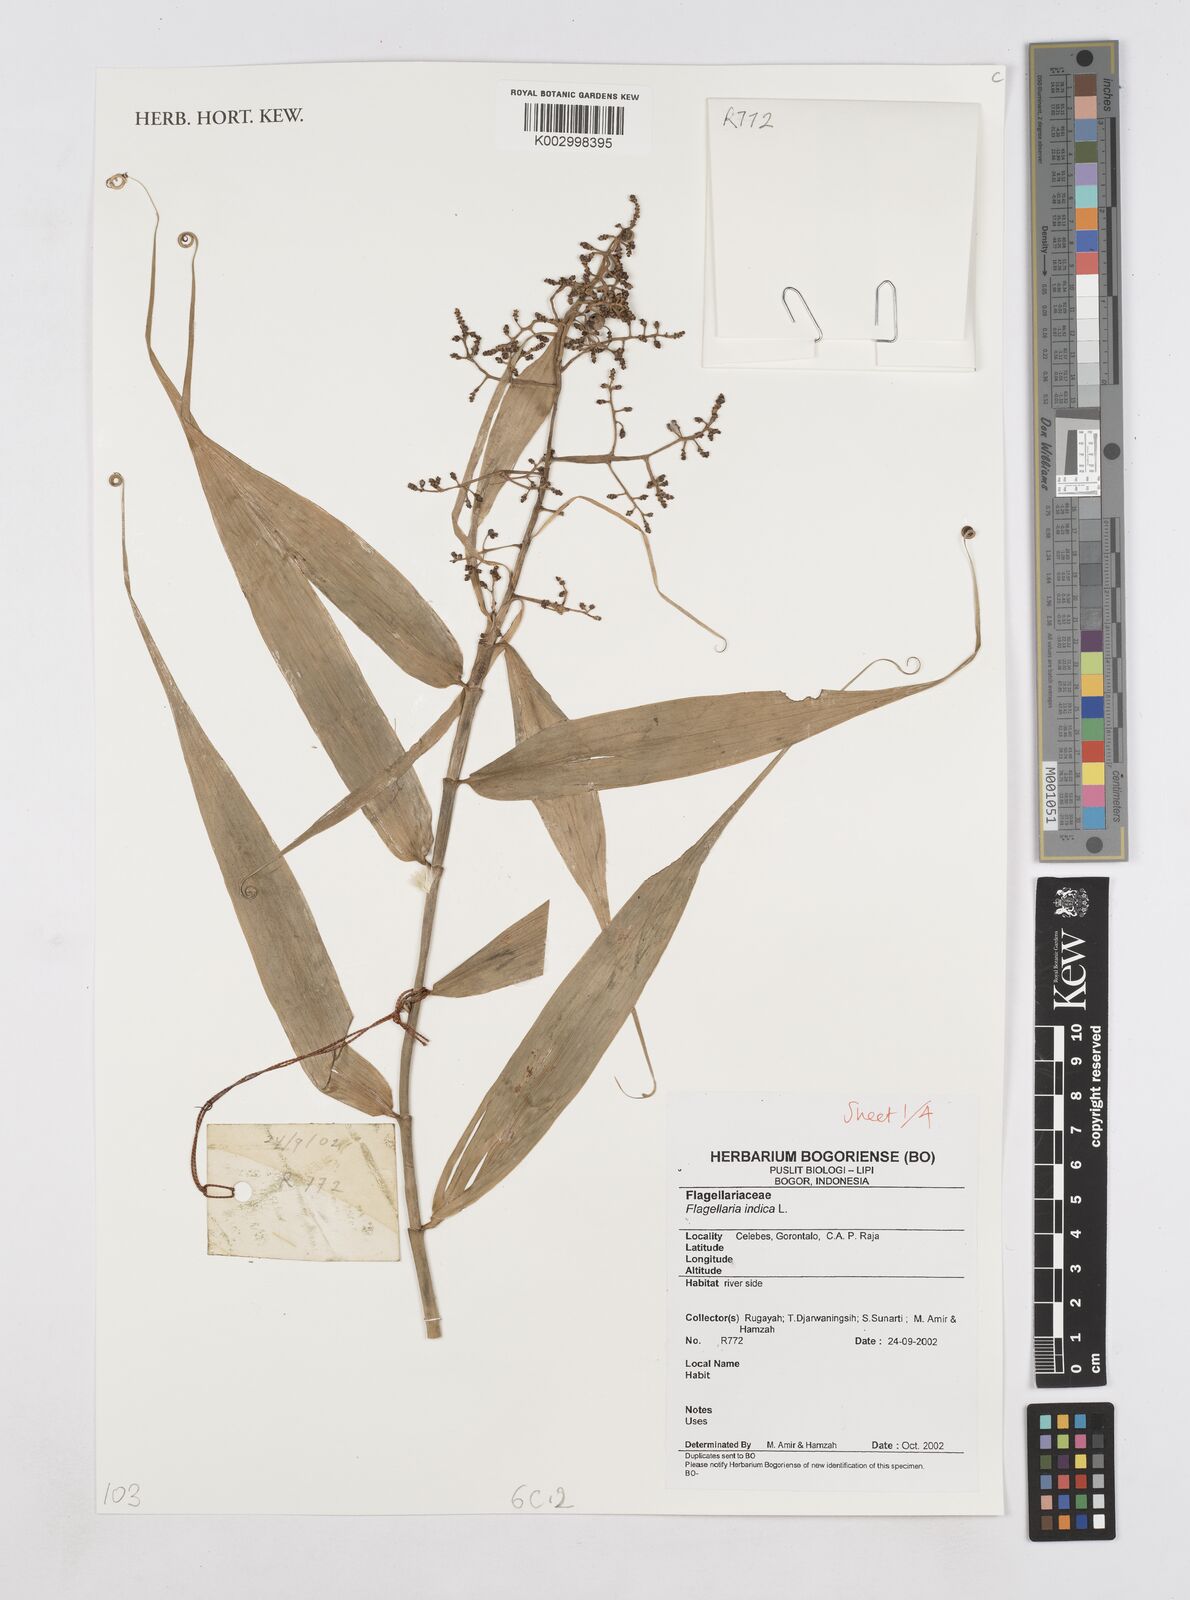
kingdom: Plantae
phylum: Tracheophyta
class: Liliopsida
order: Poales
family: Flagellariaceae
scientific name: Flagellariaceae
